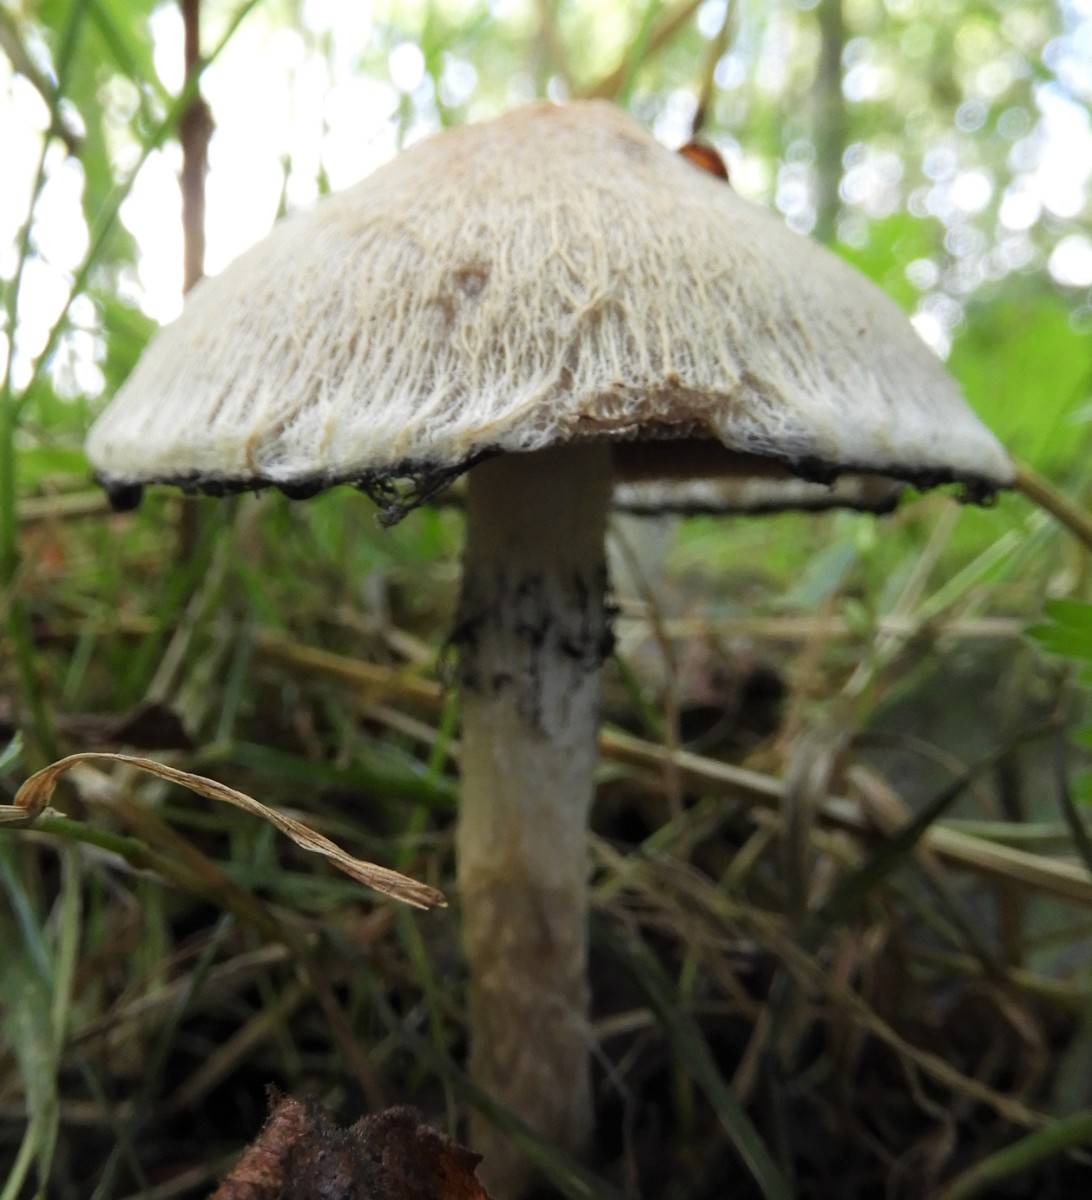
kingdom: Fungi
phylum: Basidiomycota
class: Agaricomycetes
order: Agaricales
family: Psathyrellaceae
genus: Lacrymaria
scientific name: Lacrymaria lacrymabunda
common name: grædende mørkhat
